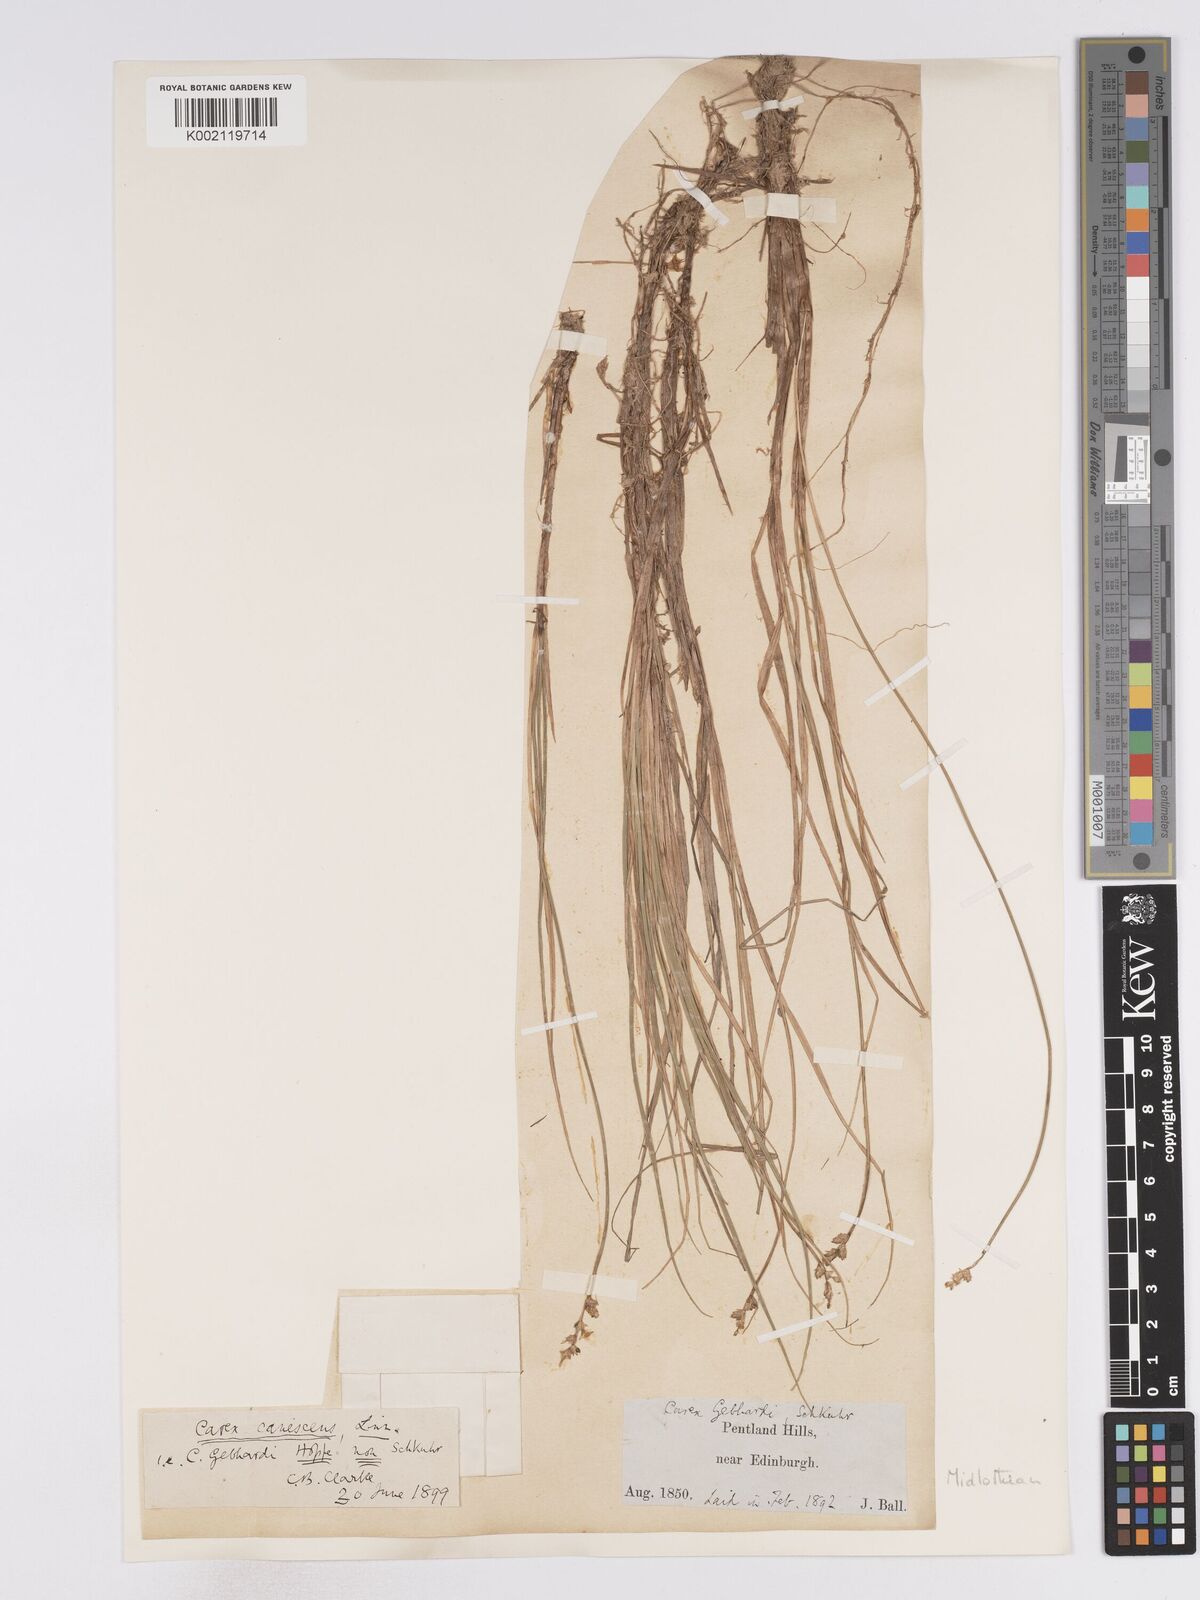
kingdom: Plantae
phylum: Tracheophyta
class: Liliopsida
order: Poales
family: Cyperaceae
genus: Carex
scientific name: Carex curta
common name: White sedge
